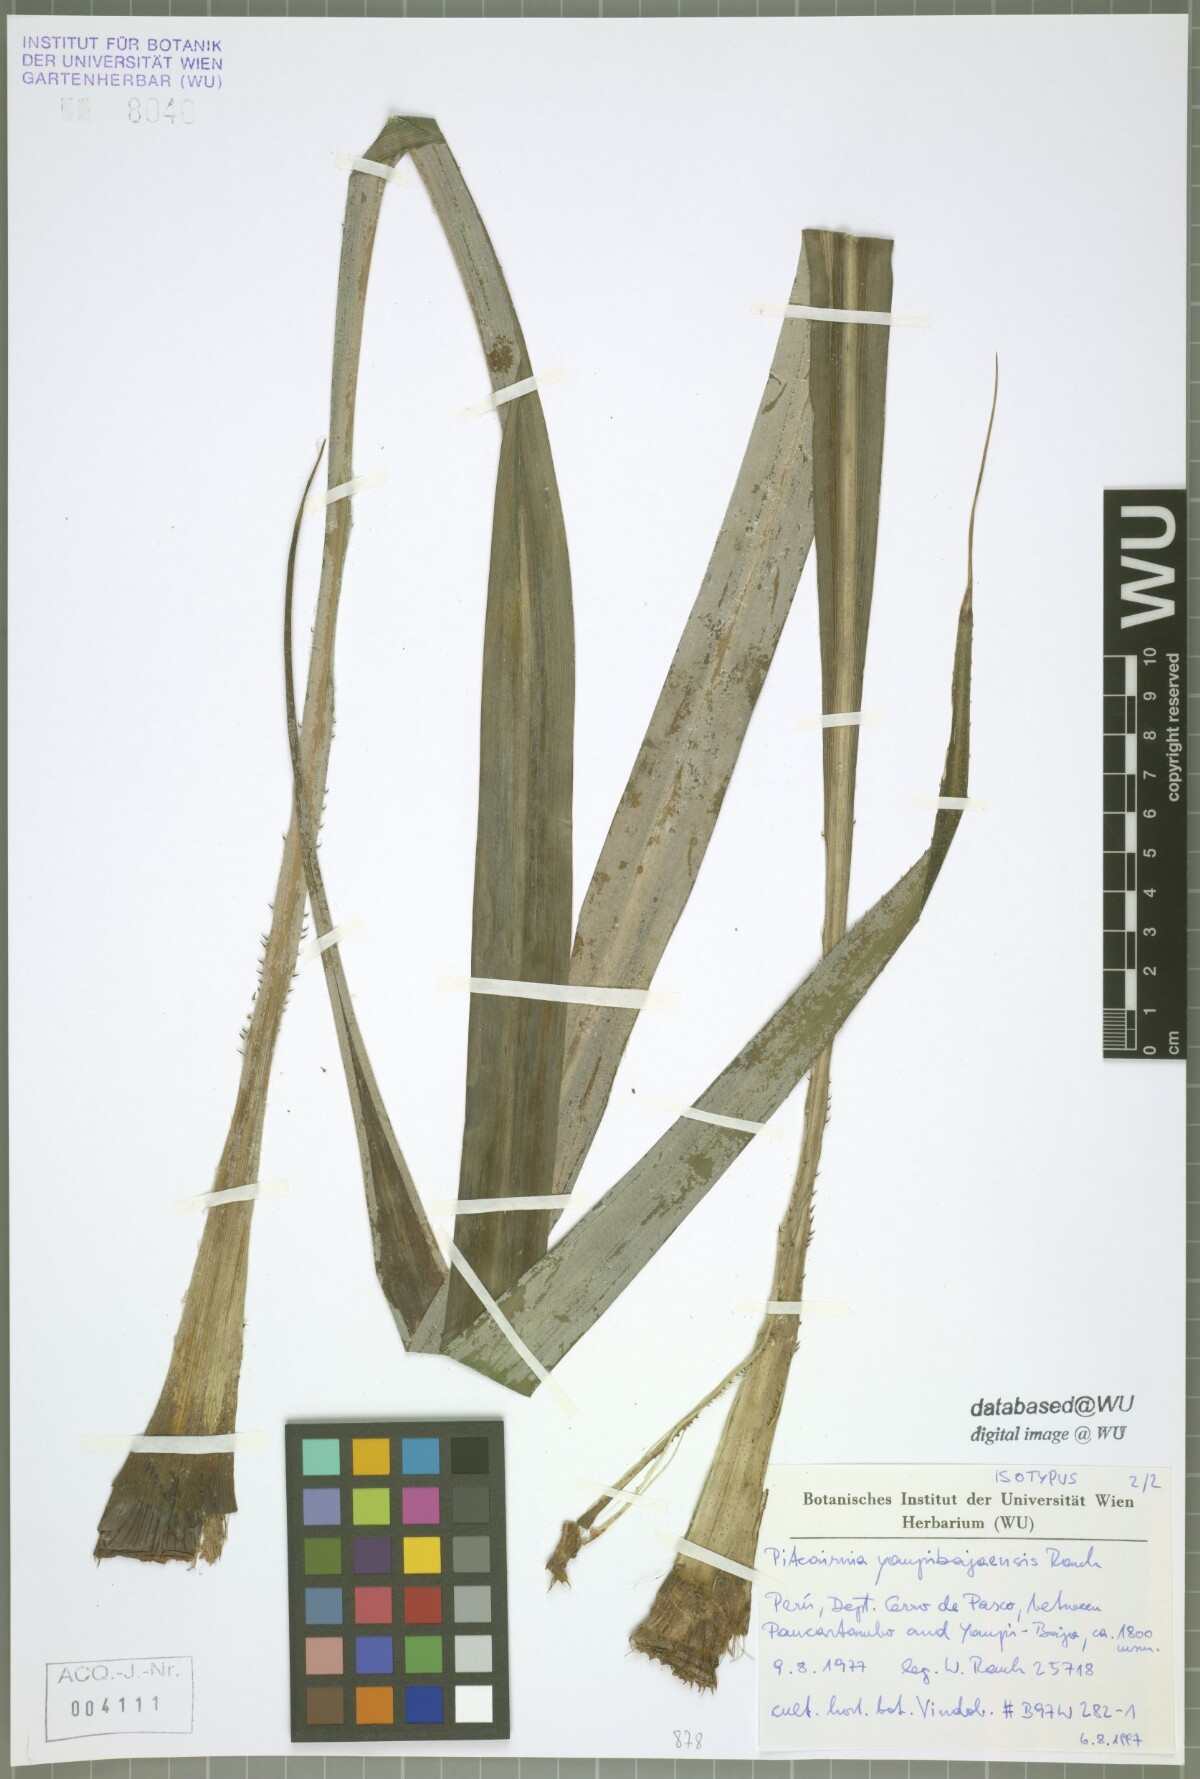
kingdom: Plantae
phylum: Tracheophyta
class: Liliopsida
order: Poales
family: Bromeliaceae
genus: Pitcairnia
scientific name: Pitcairnia yaupi-bajaensis
